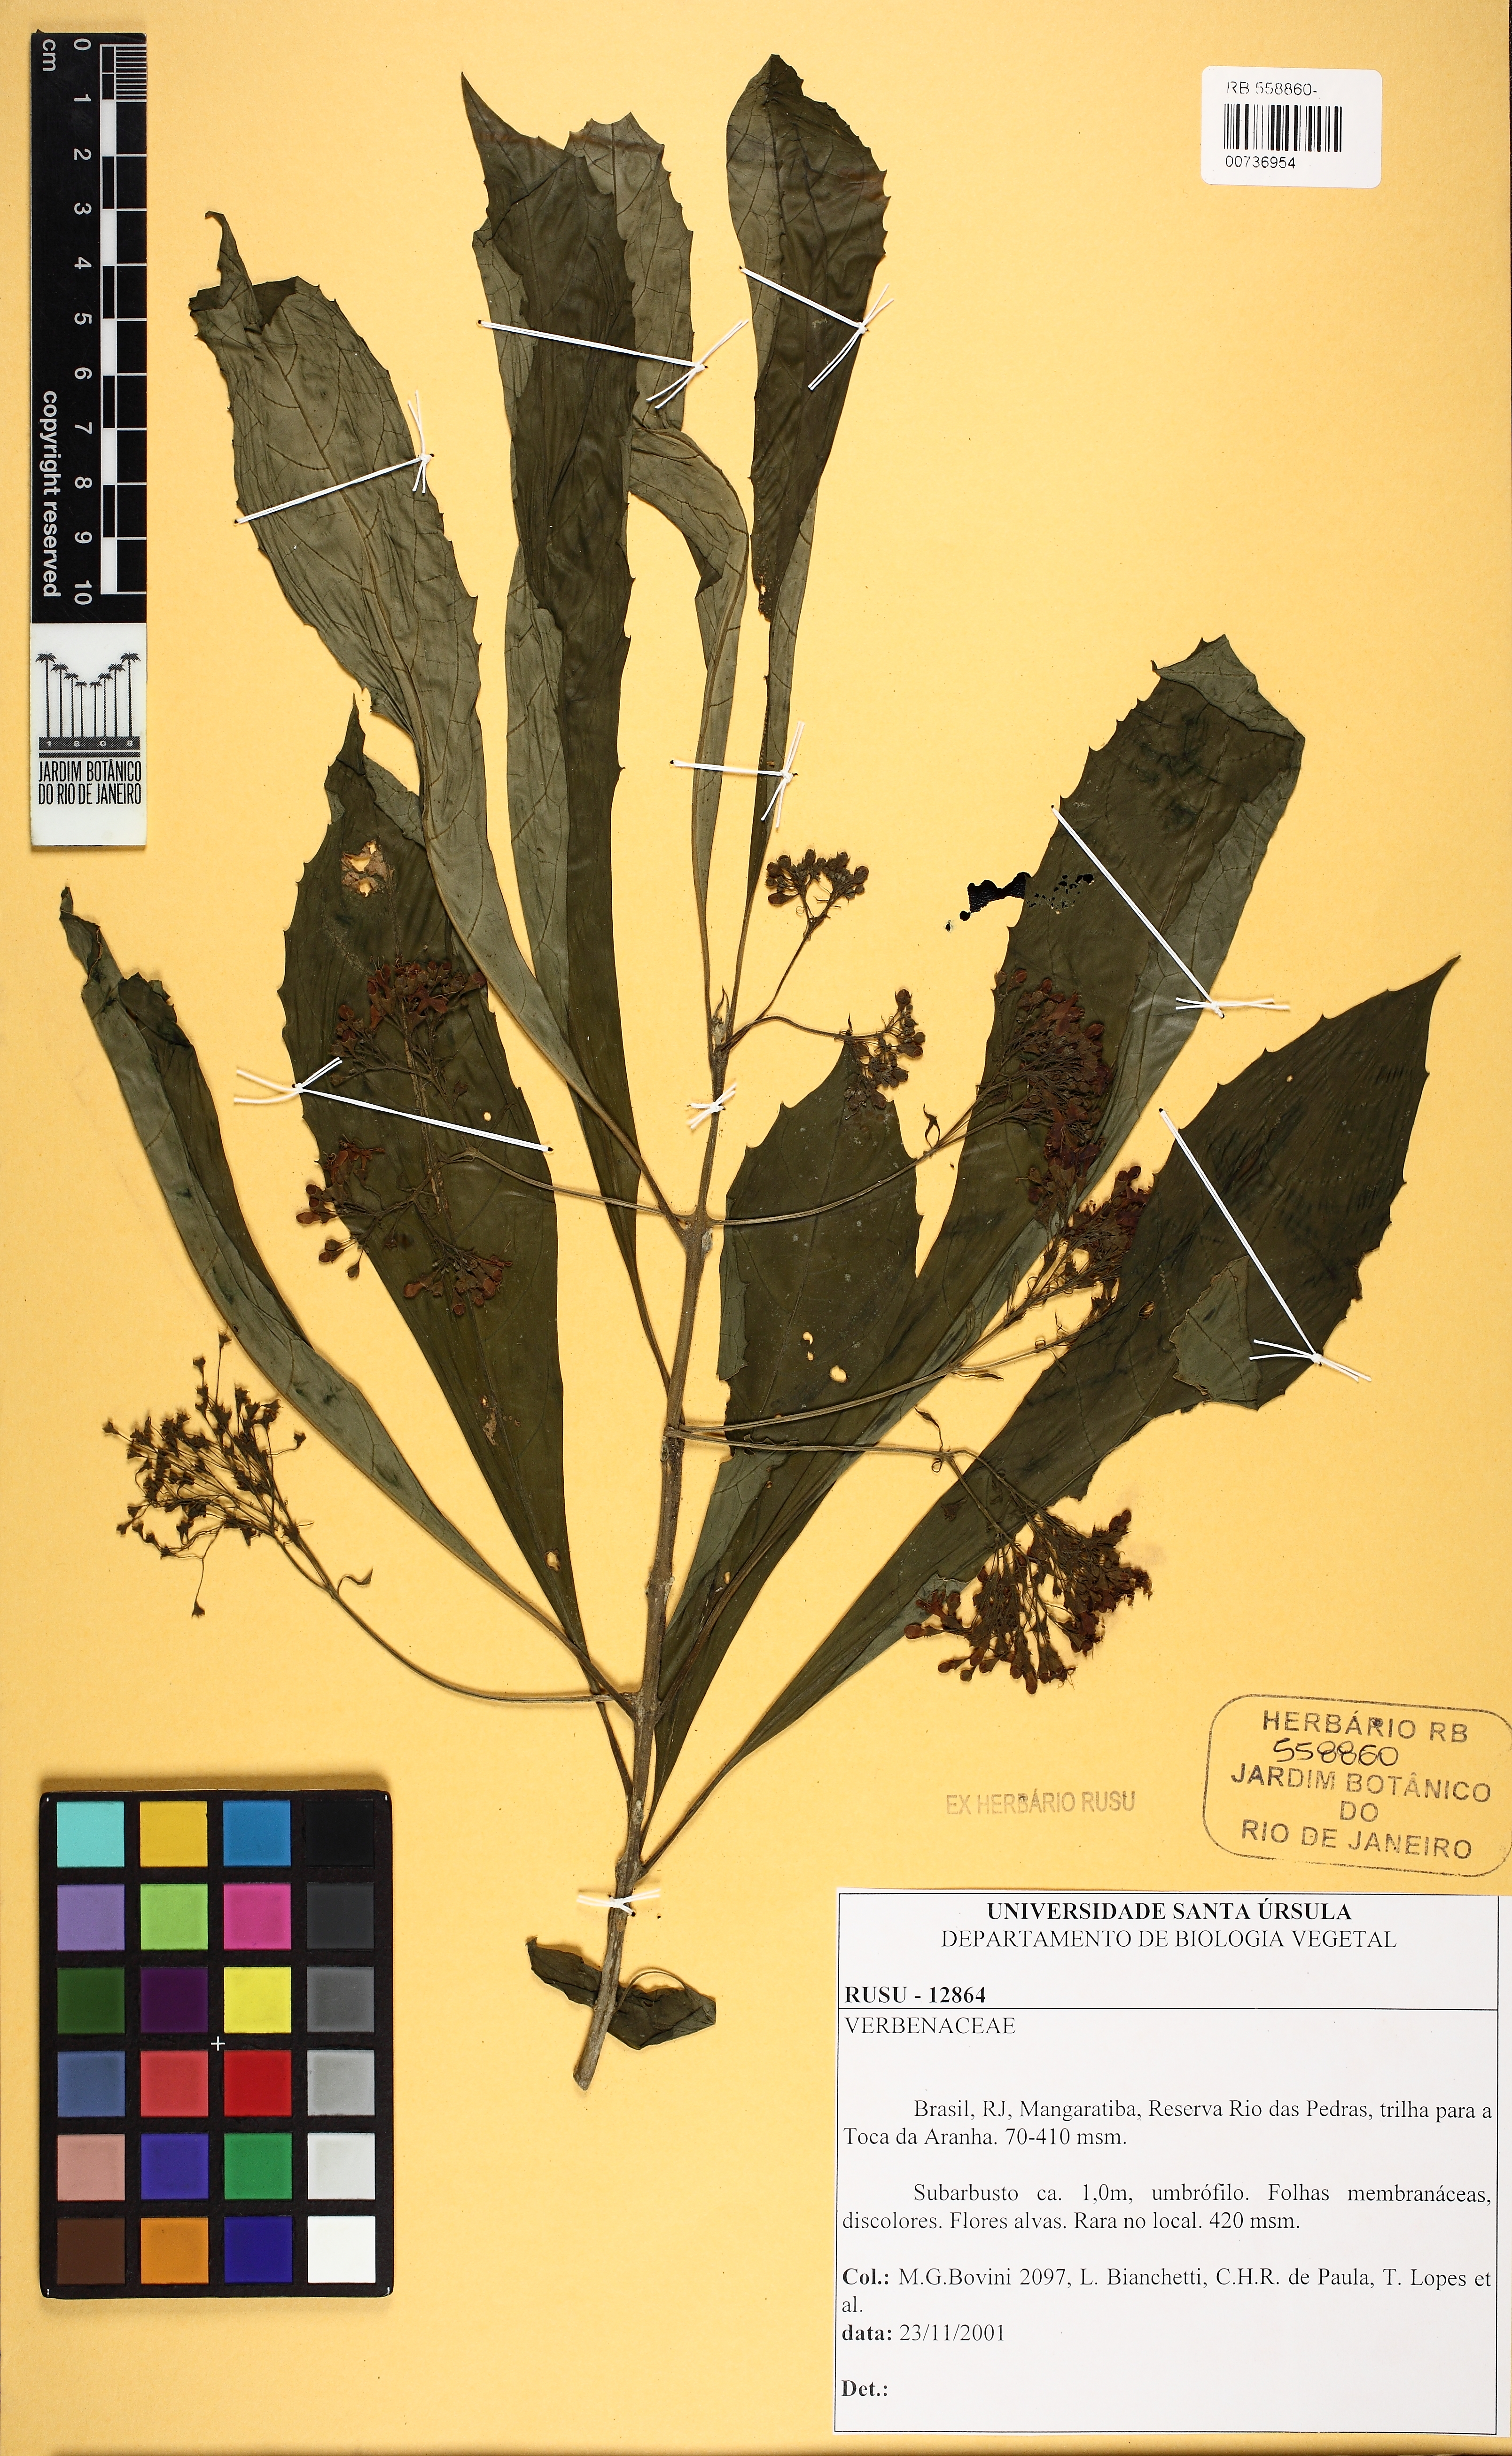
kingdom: Plantae
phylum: Tracheophyta
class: Magnoliopsida
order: Lamiales
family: Verbenaceae
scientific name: Verbenaceae
